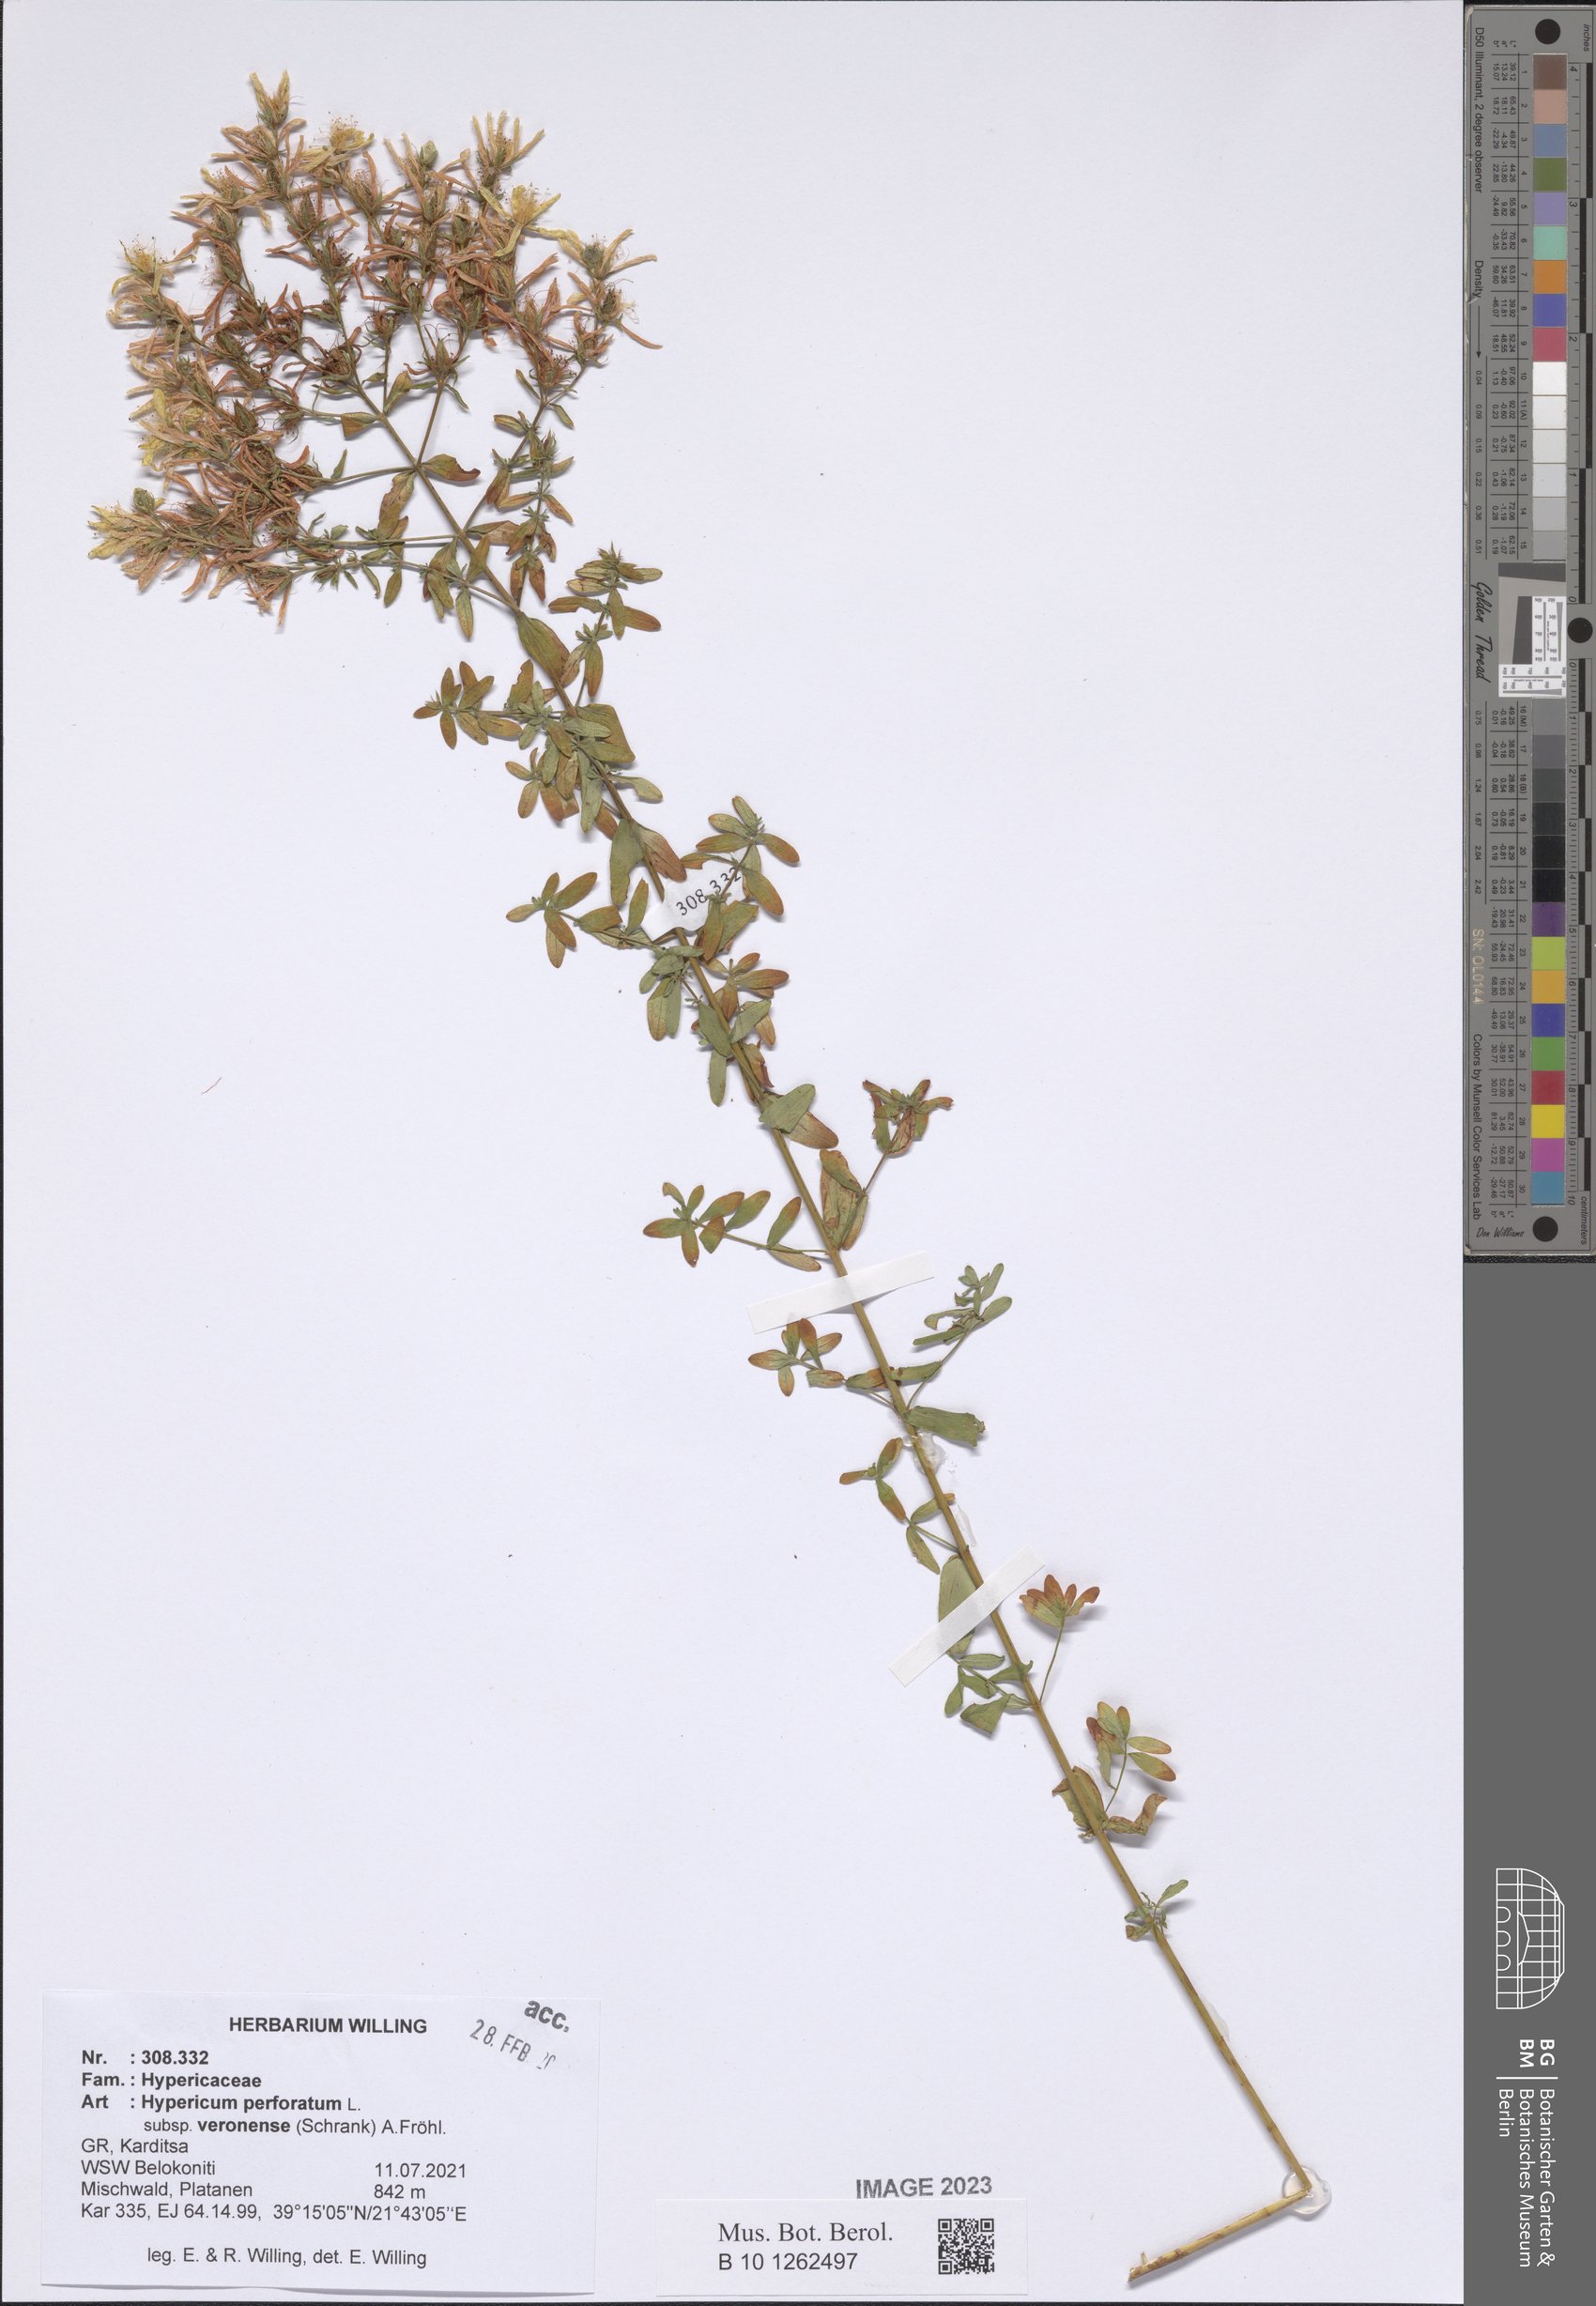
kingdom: Plantae
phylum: Tracheophyta
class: Magnoliopsida
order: Malpighiales
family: Hypericaceae
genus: Hypericum
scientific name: Hypericum veronense
